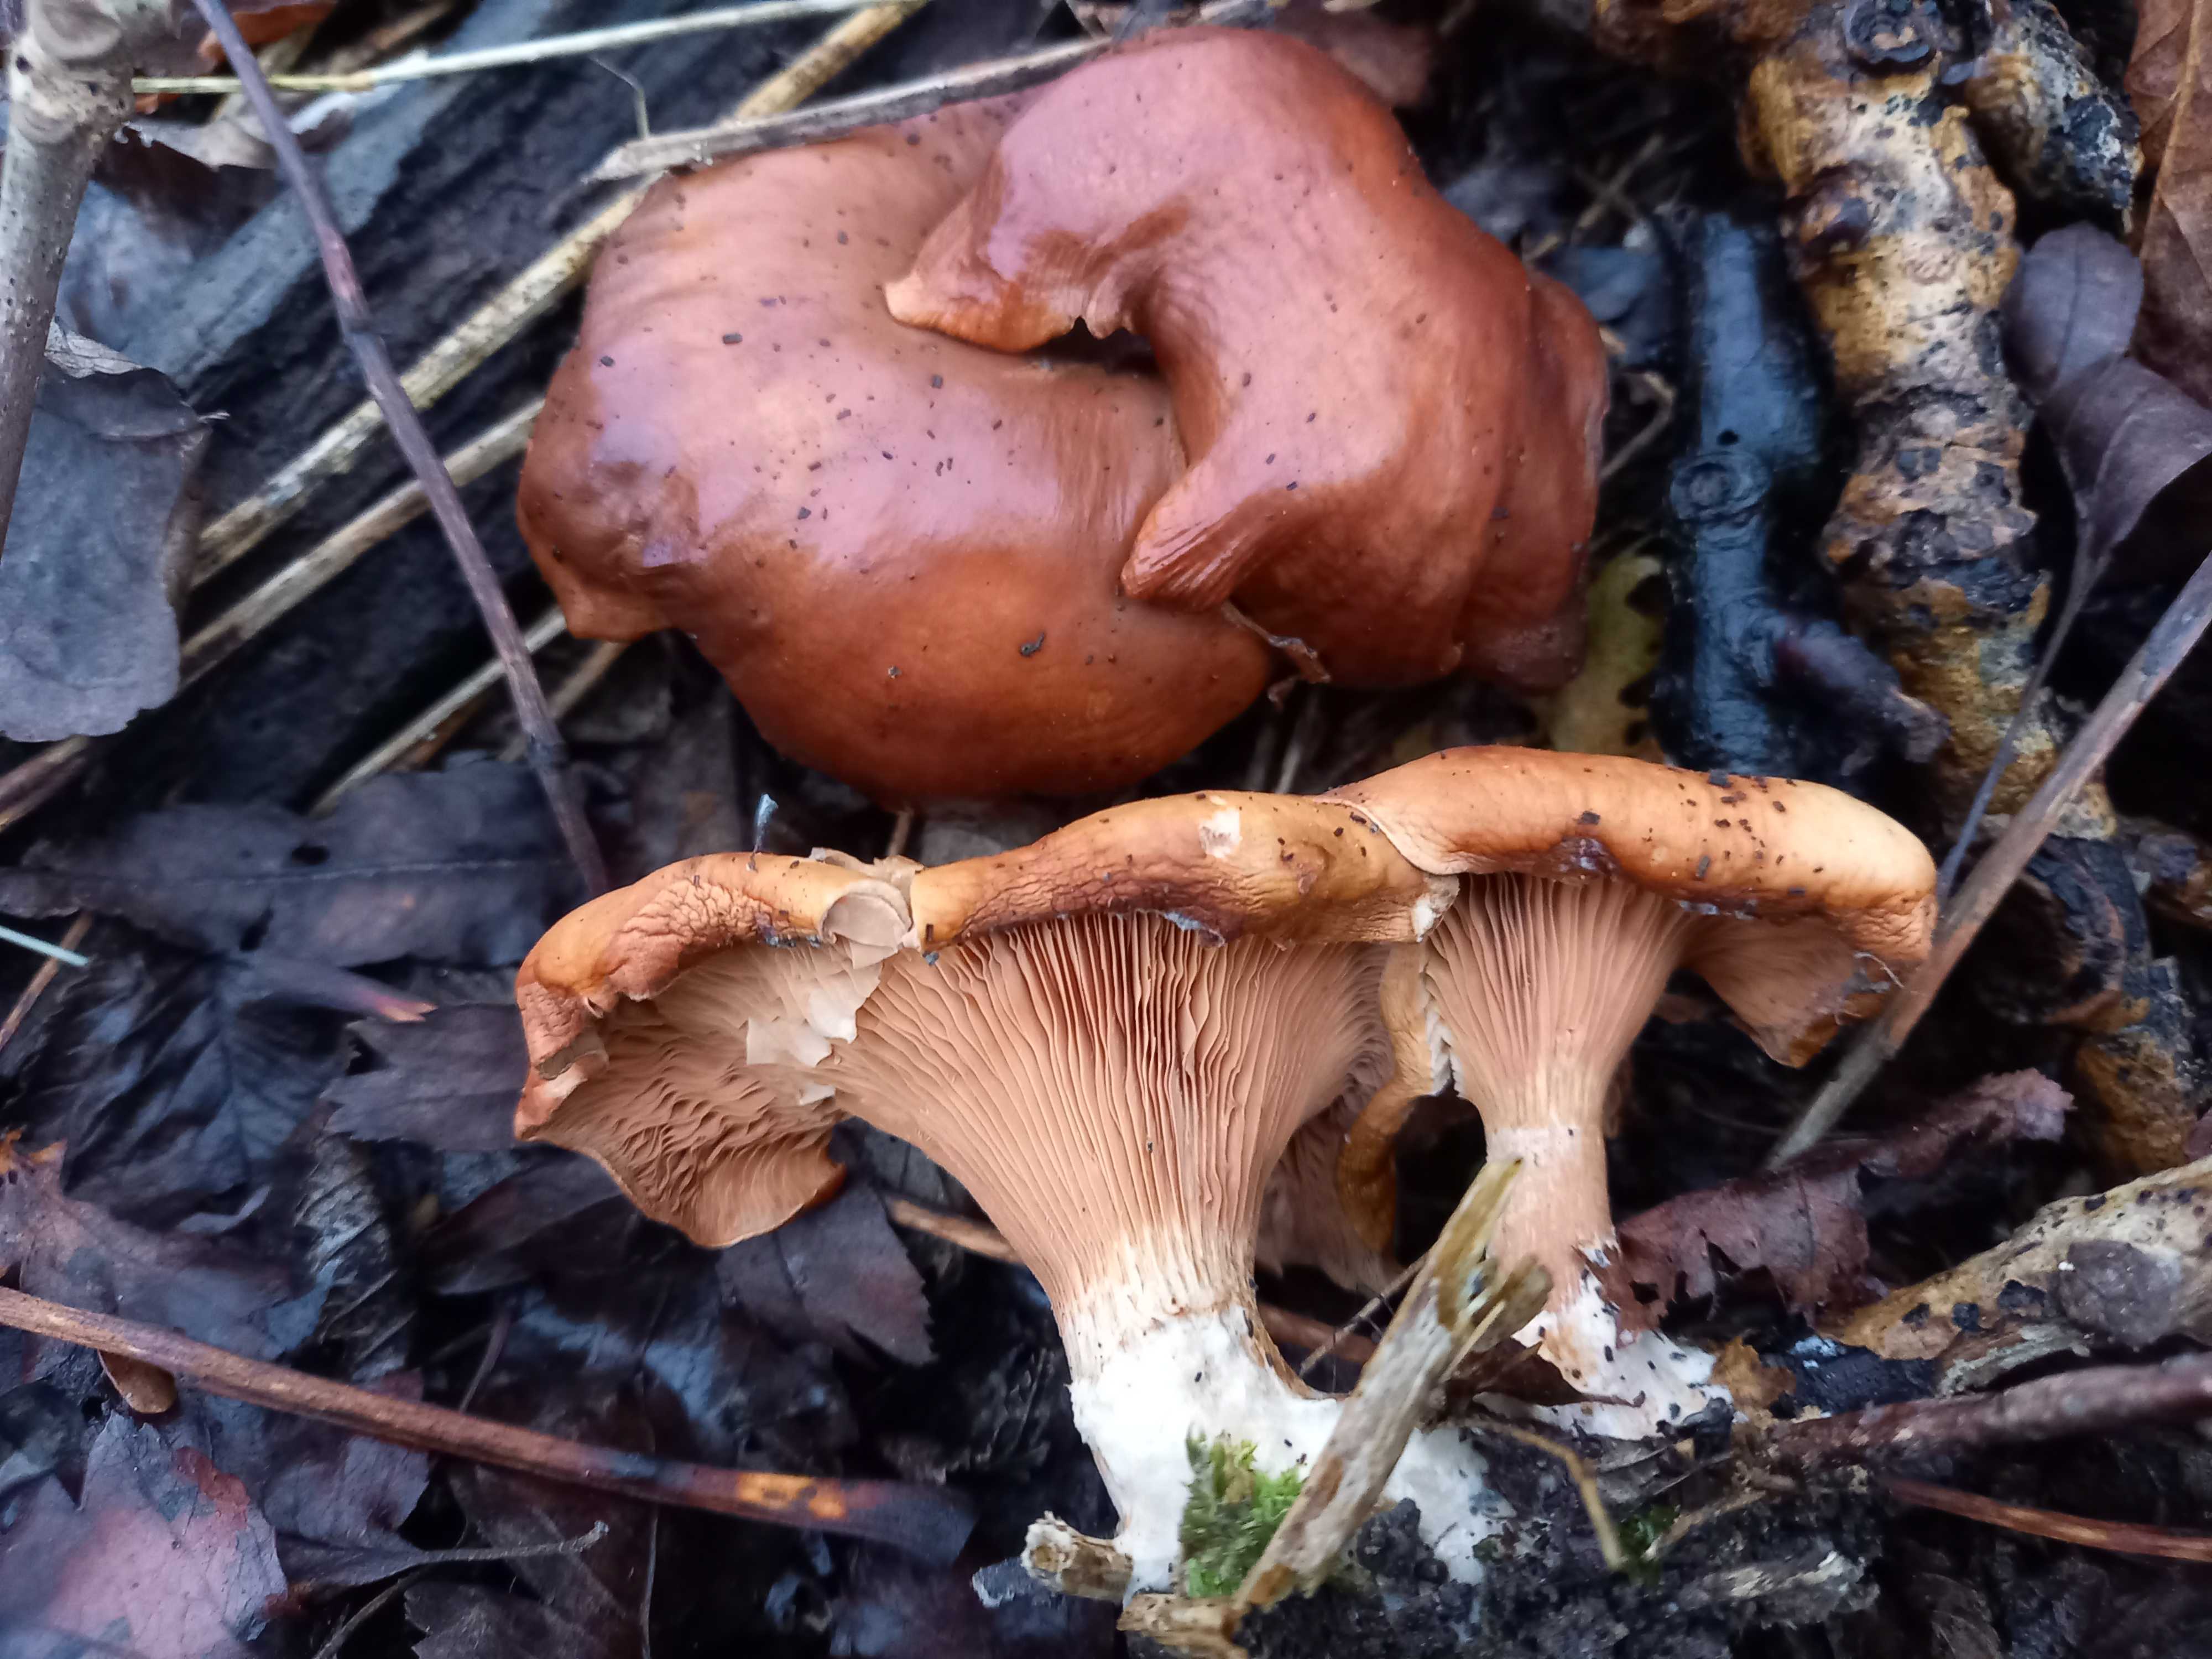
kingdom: Fungi
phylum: Basidiomycota
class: Agaricomycetes
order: Agaricales
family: Tricholomataceae
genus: Paralepista
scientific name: Paralepista flaccida
